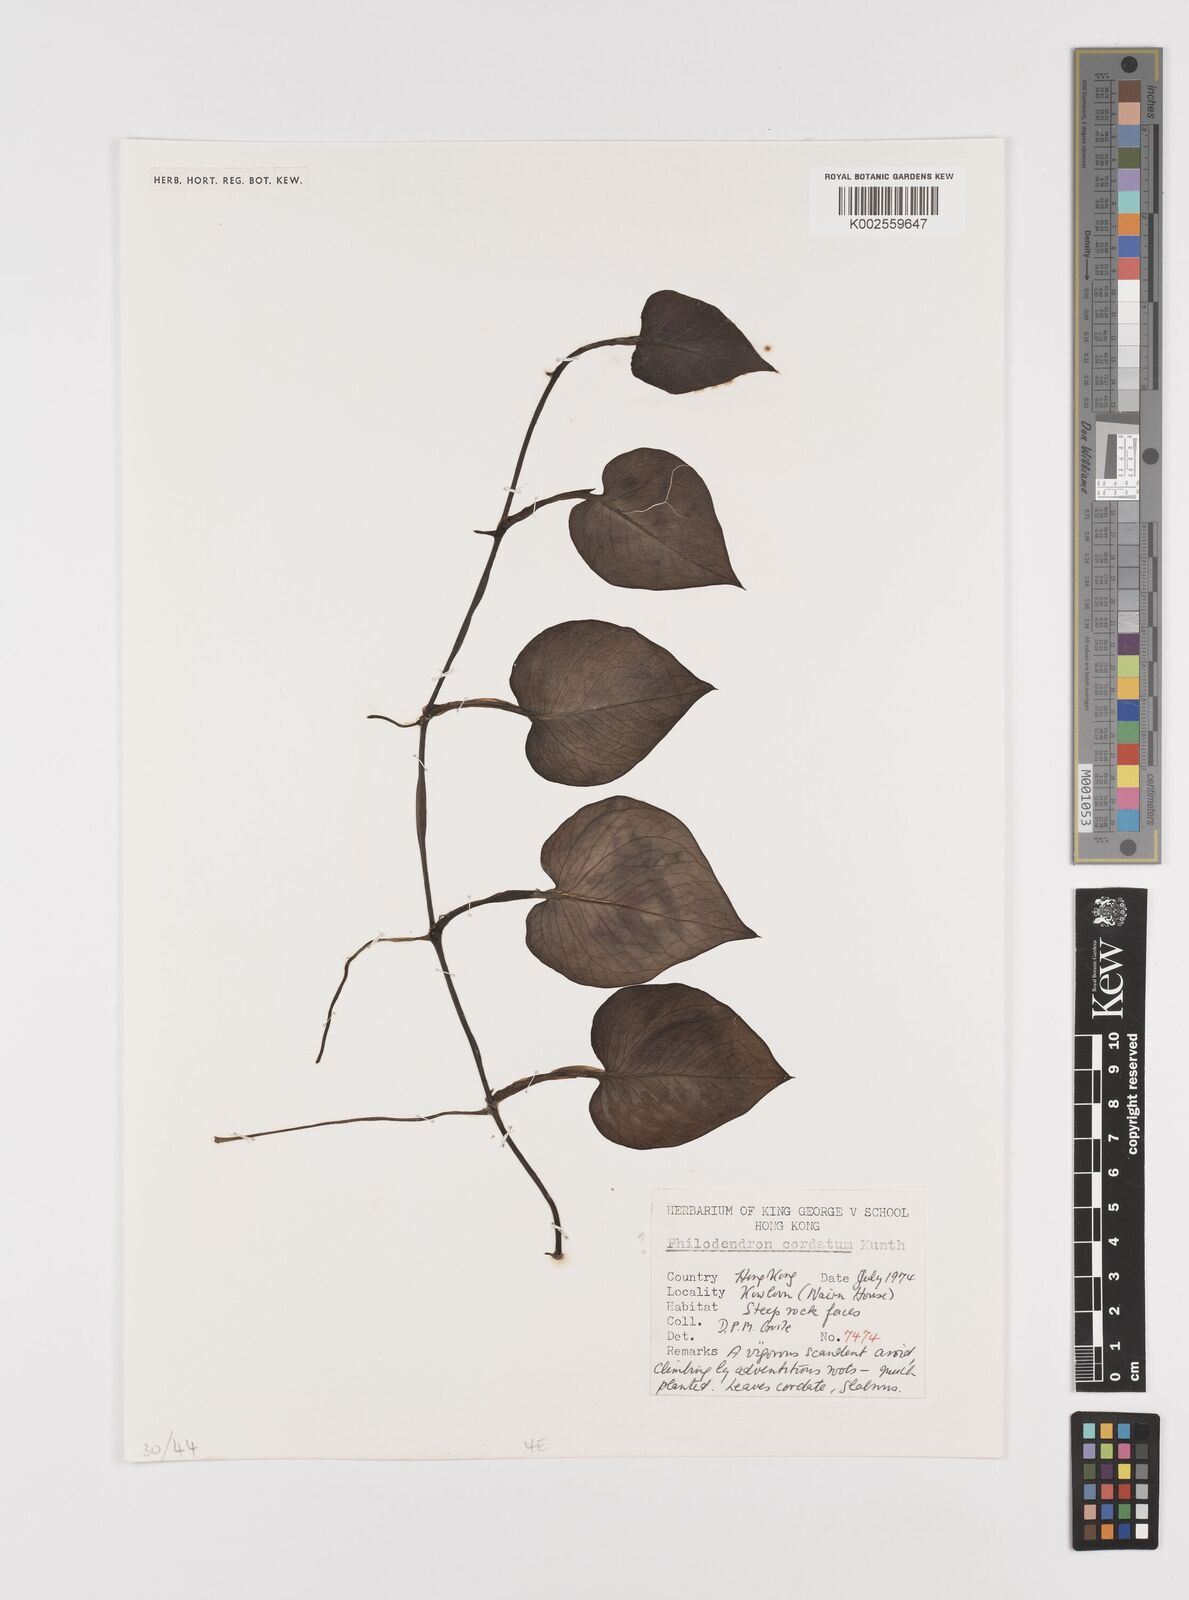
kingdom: Plantae
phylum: Tracheophyta
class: Liliopsida
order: Alismatales
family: Araceae
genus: Philodendron
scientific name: Philodendron
